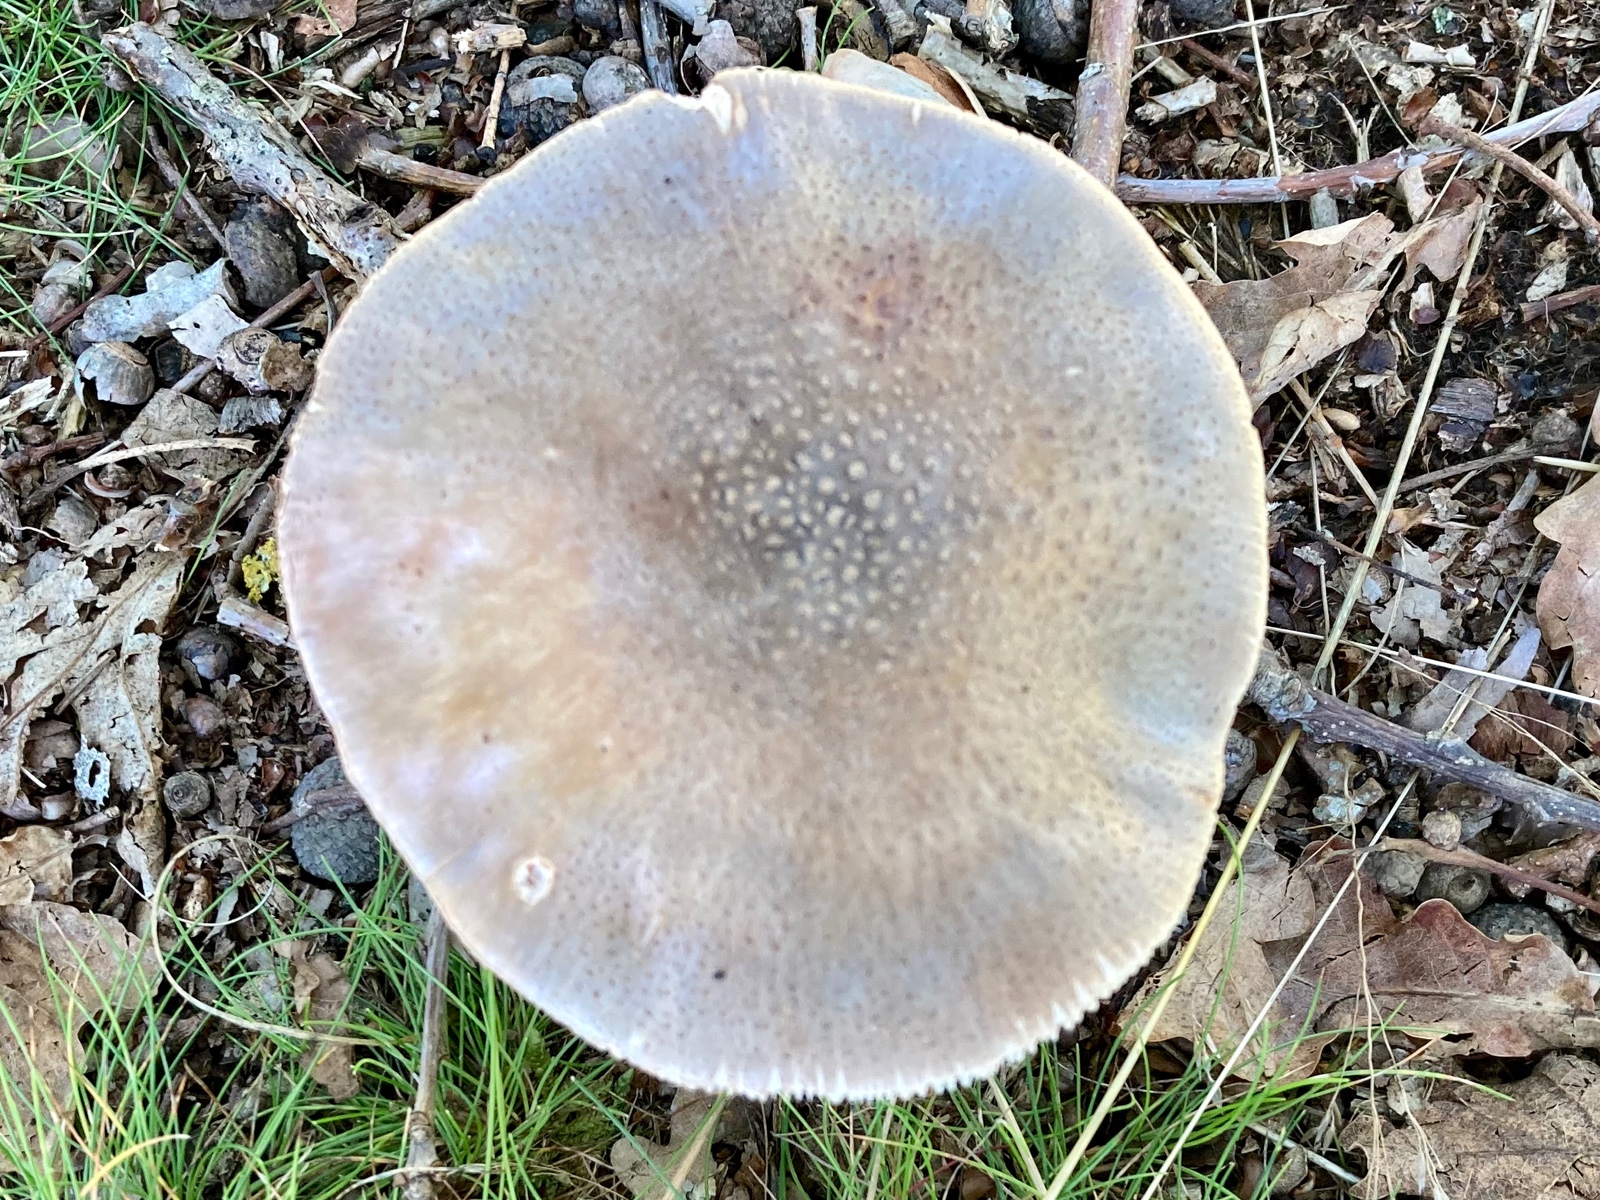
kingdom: Fungi
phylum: Basidiomycota
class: Agaricomycetes
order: Agaricales
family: Amanitaceae
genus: Amanita
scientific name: Amanita rubescens
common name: rødmende fluesvamp
